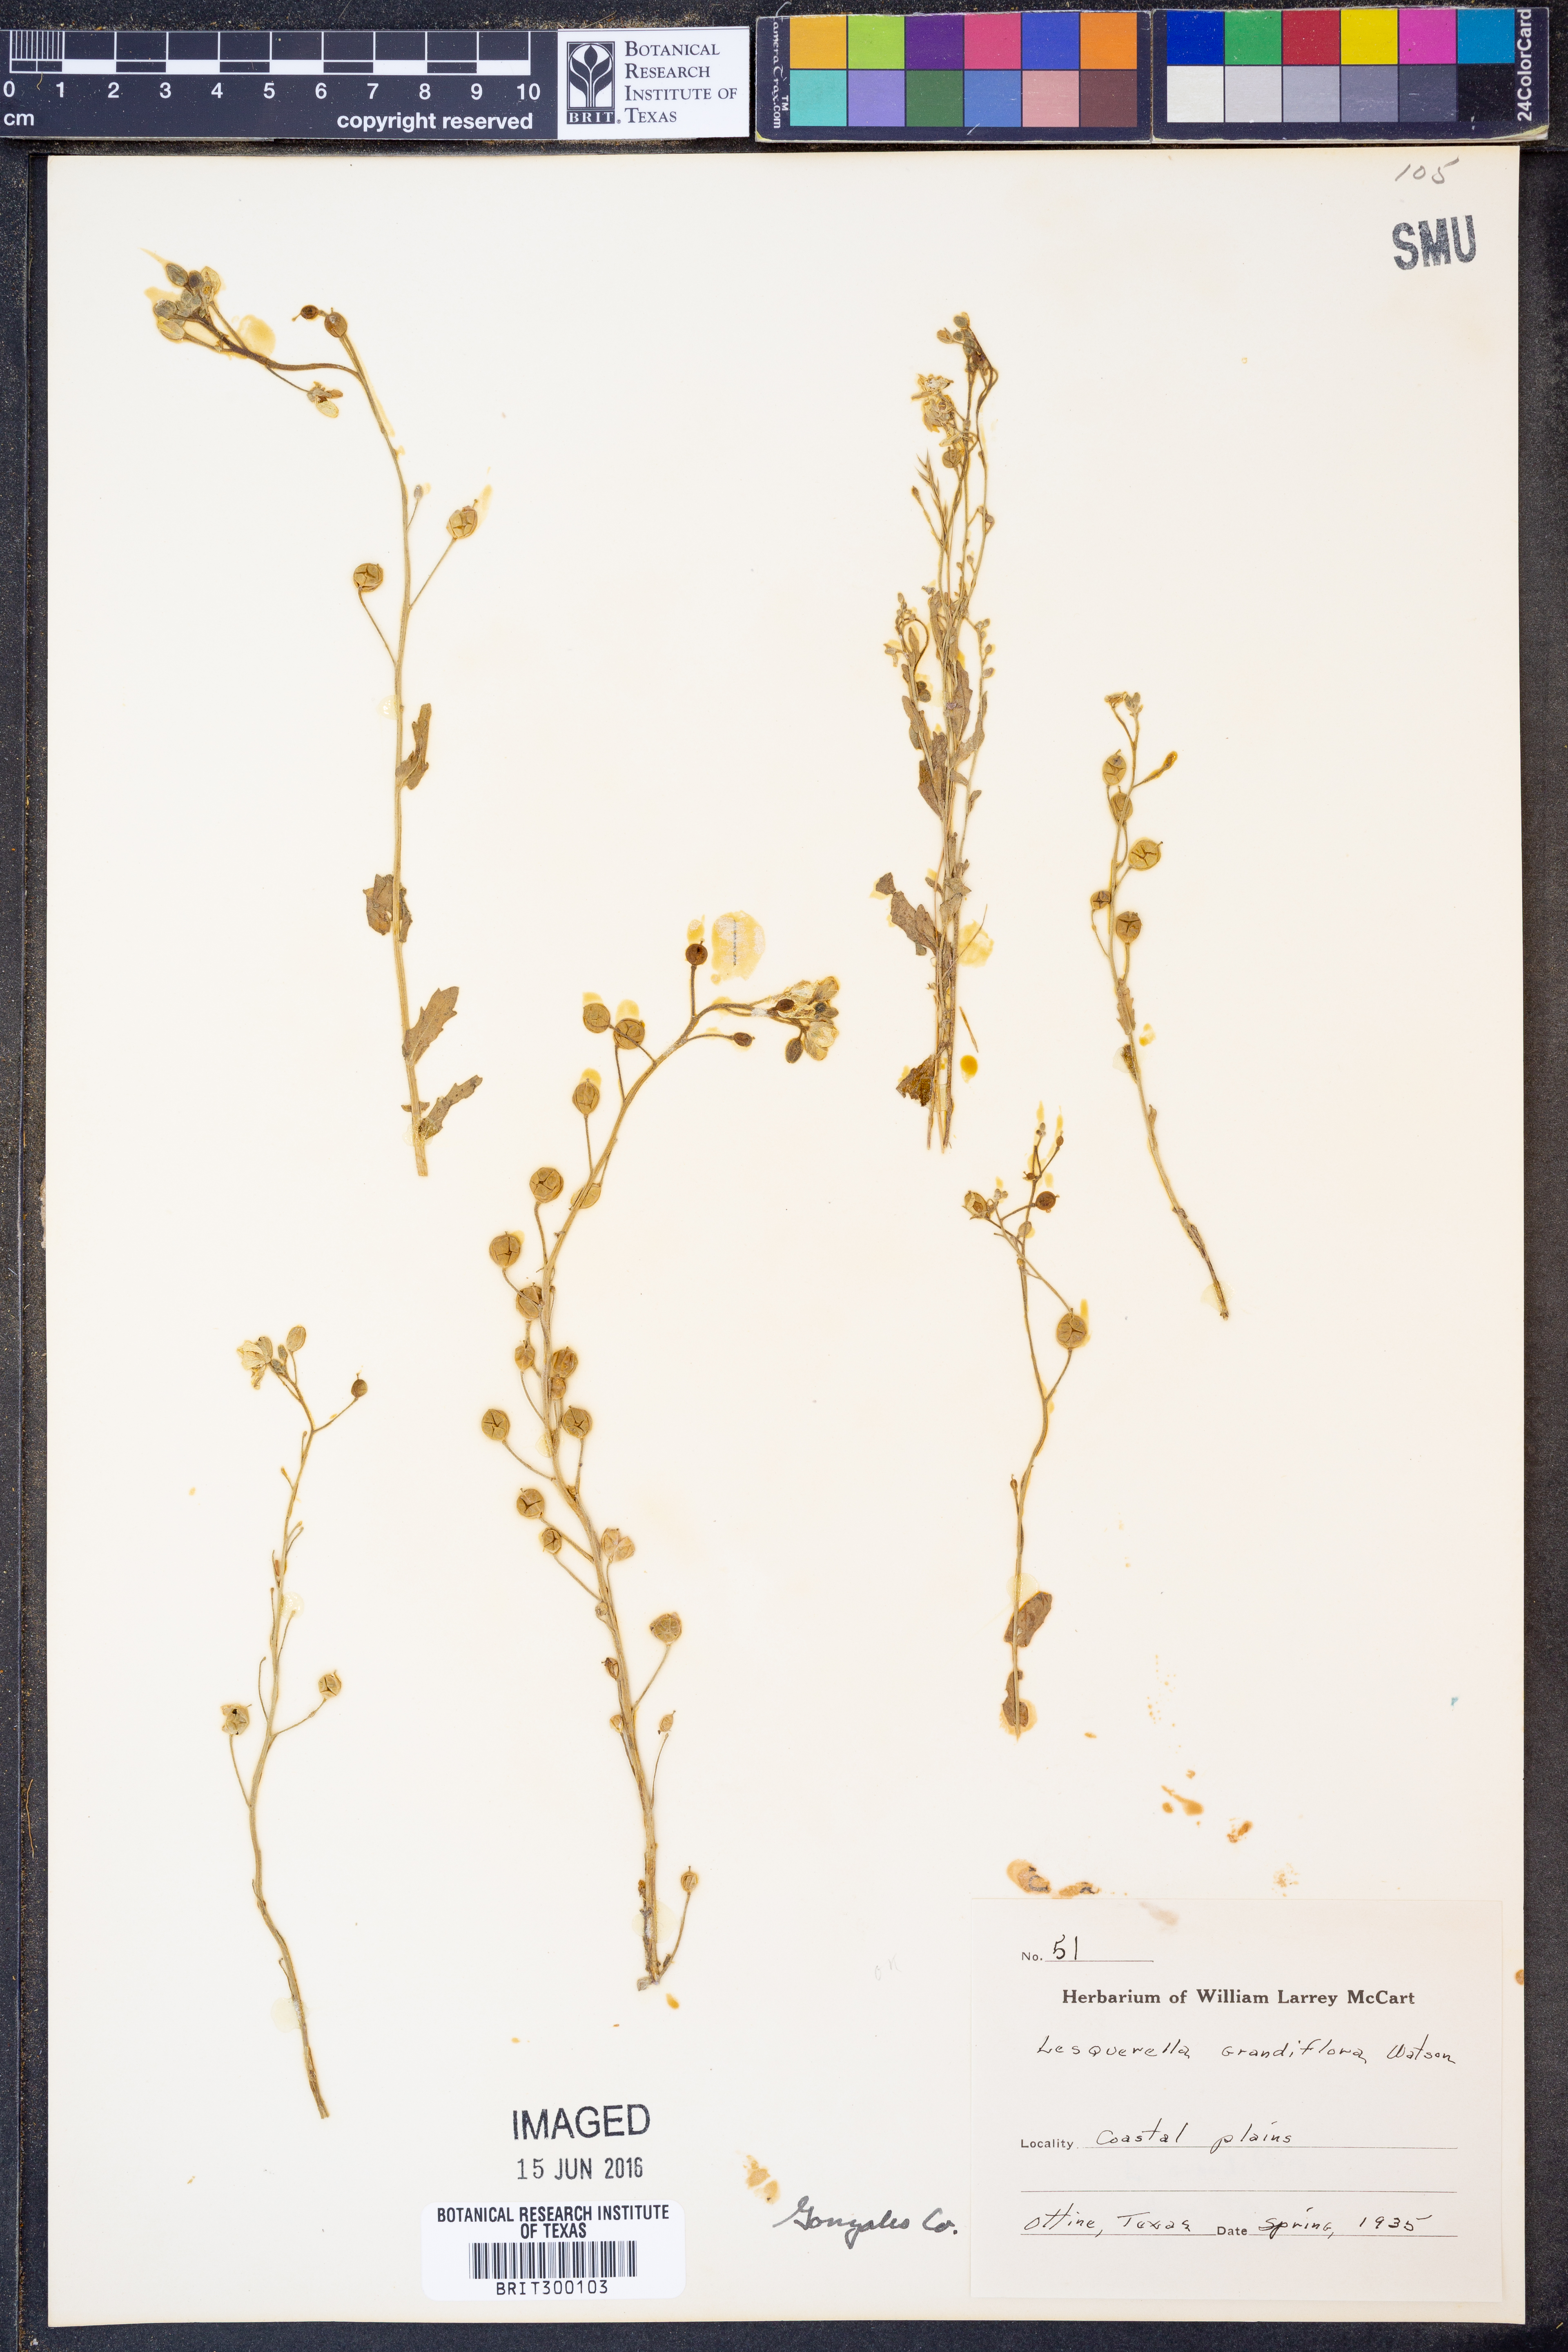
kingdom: Plantae
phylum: Tracheophyta
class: Magnoliopsida
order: Brassicales
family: Brassicaceae
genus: Paysonia
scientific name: Paysonia grandiflora
